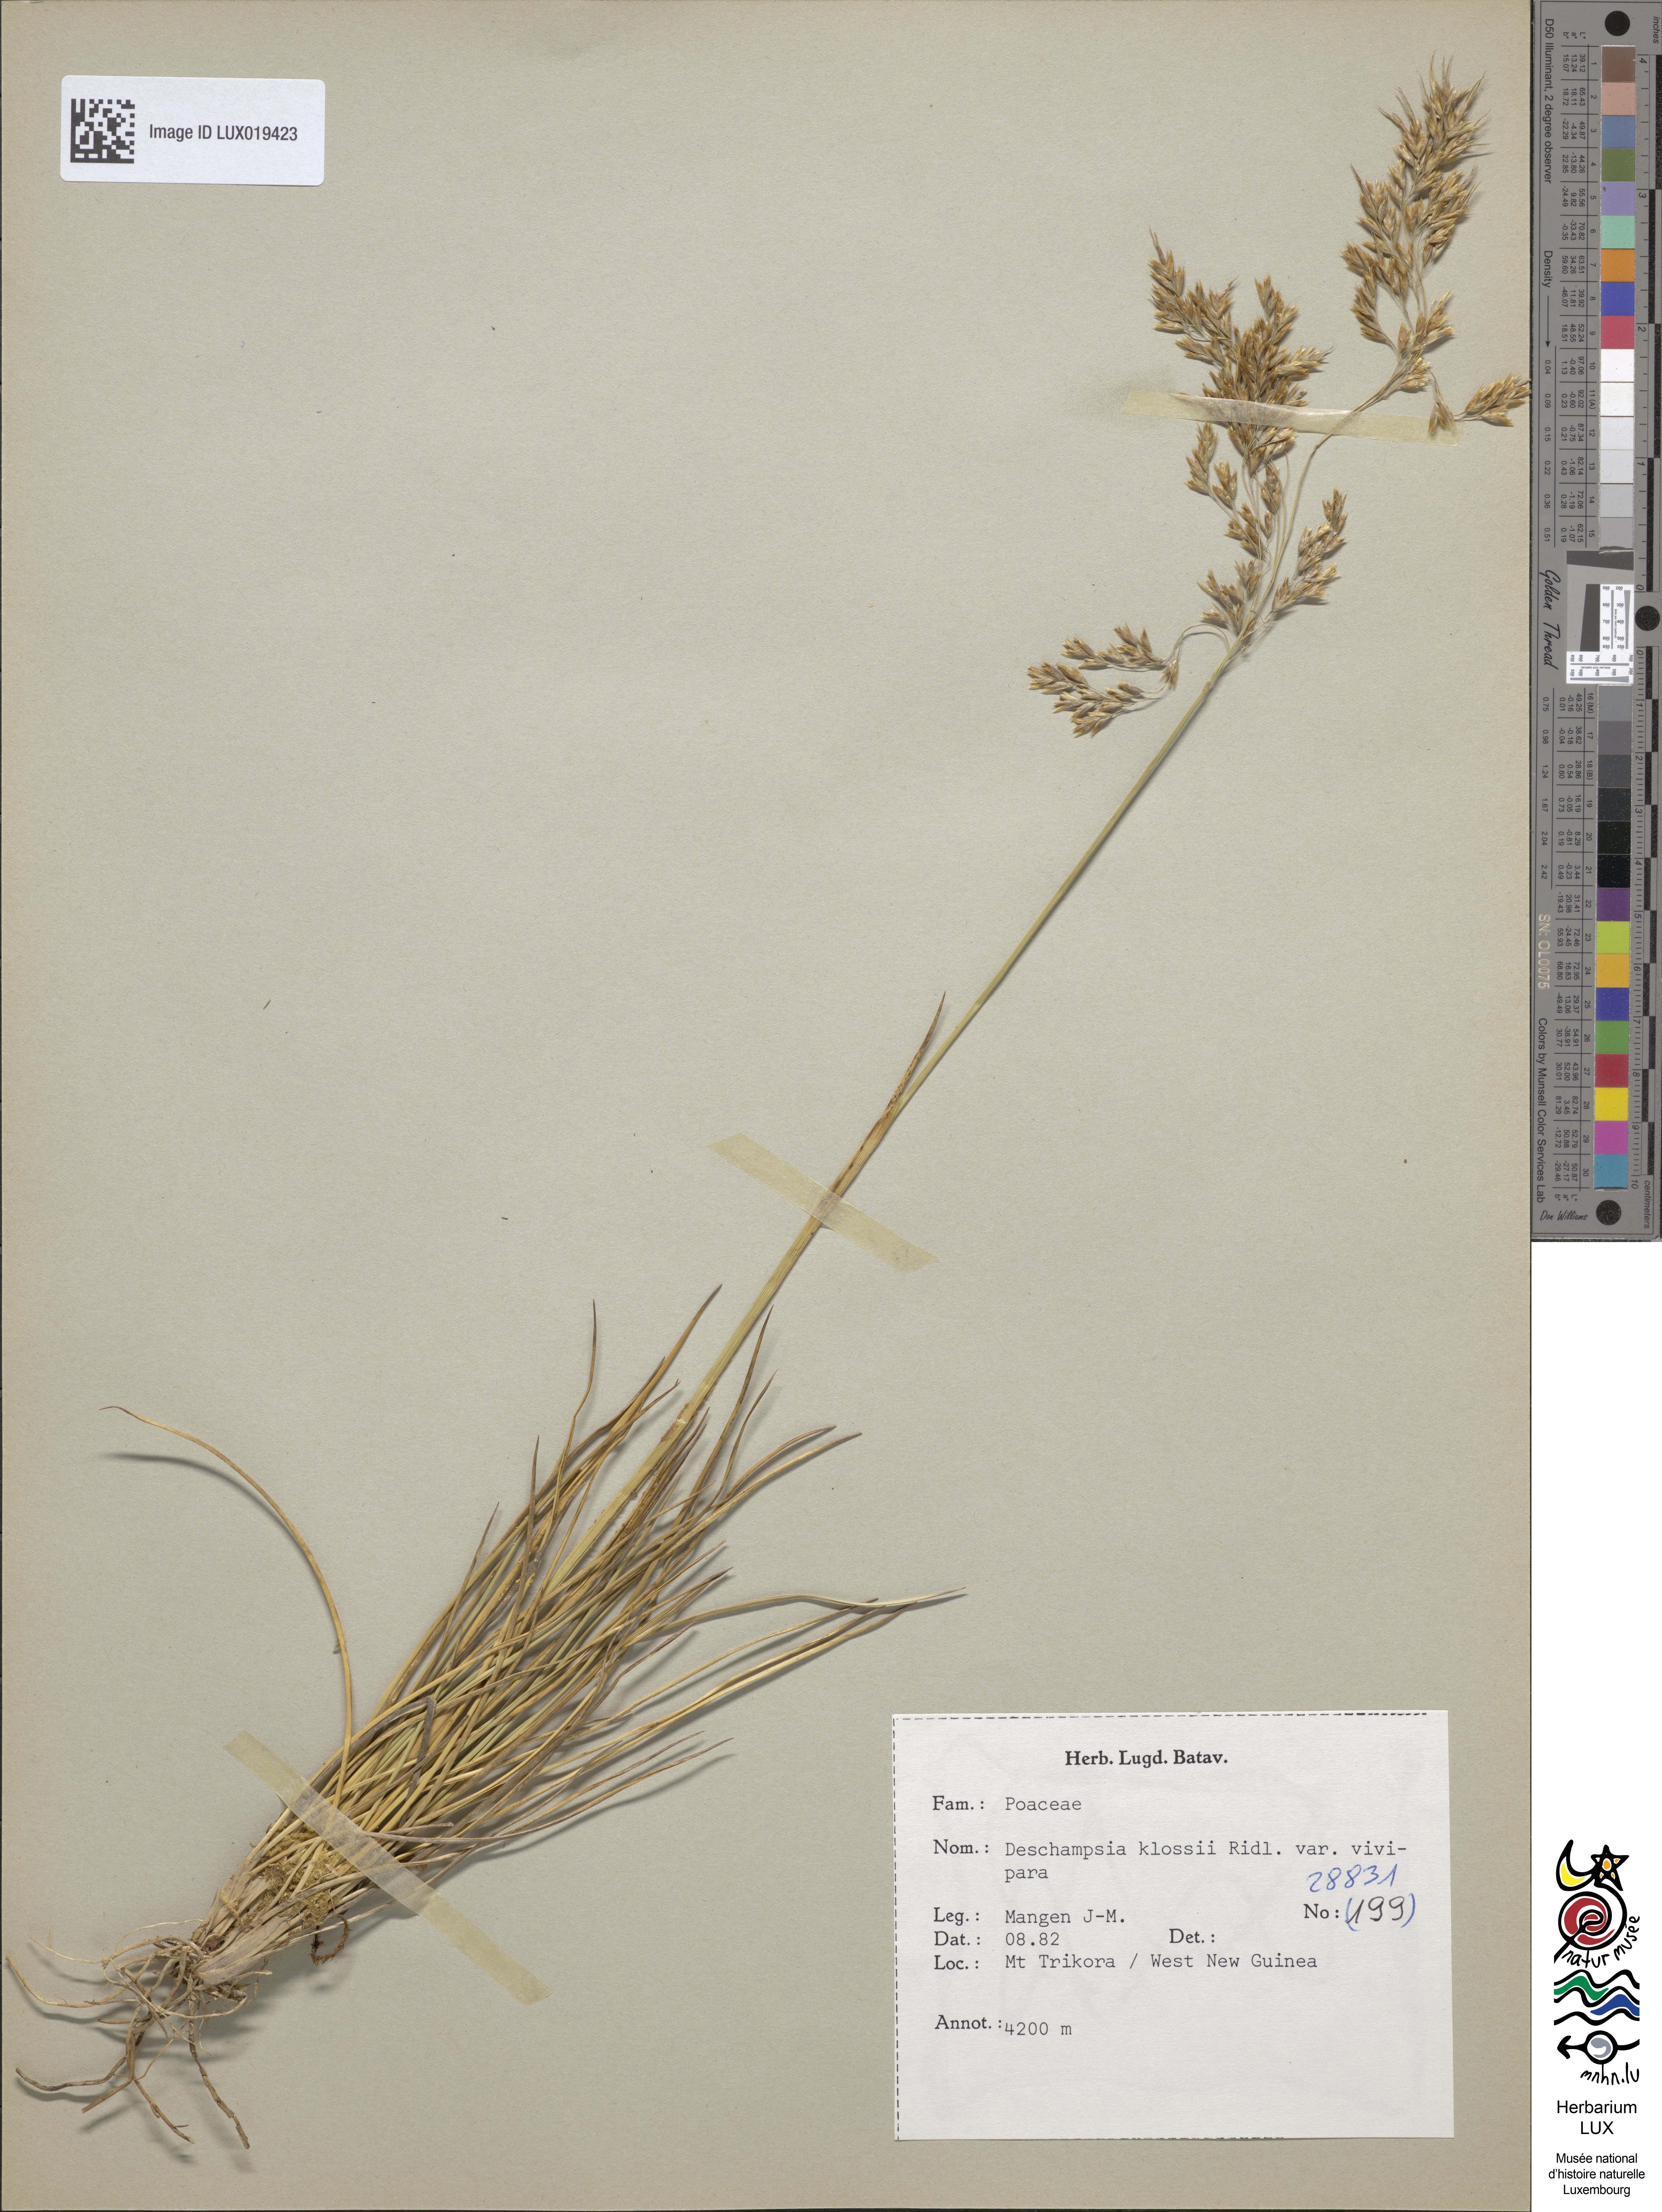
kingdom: Plantae
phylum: Tracheophyta
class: Liliopsida
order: Poales
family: Poaceae
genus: Deschampsia
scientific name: Deschampsia klossii
